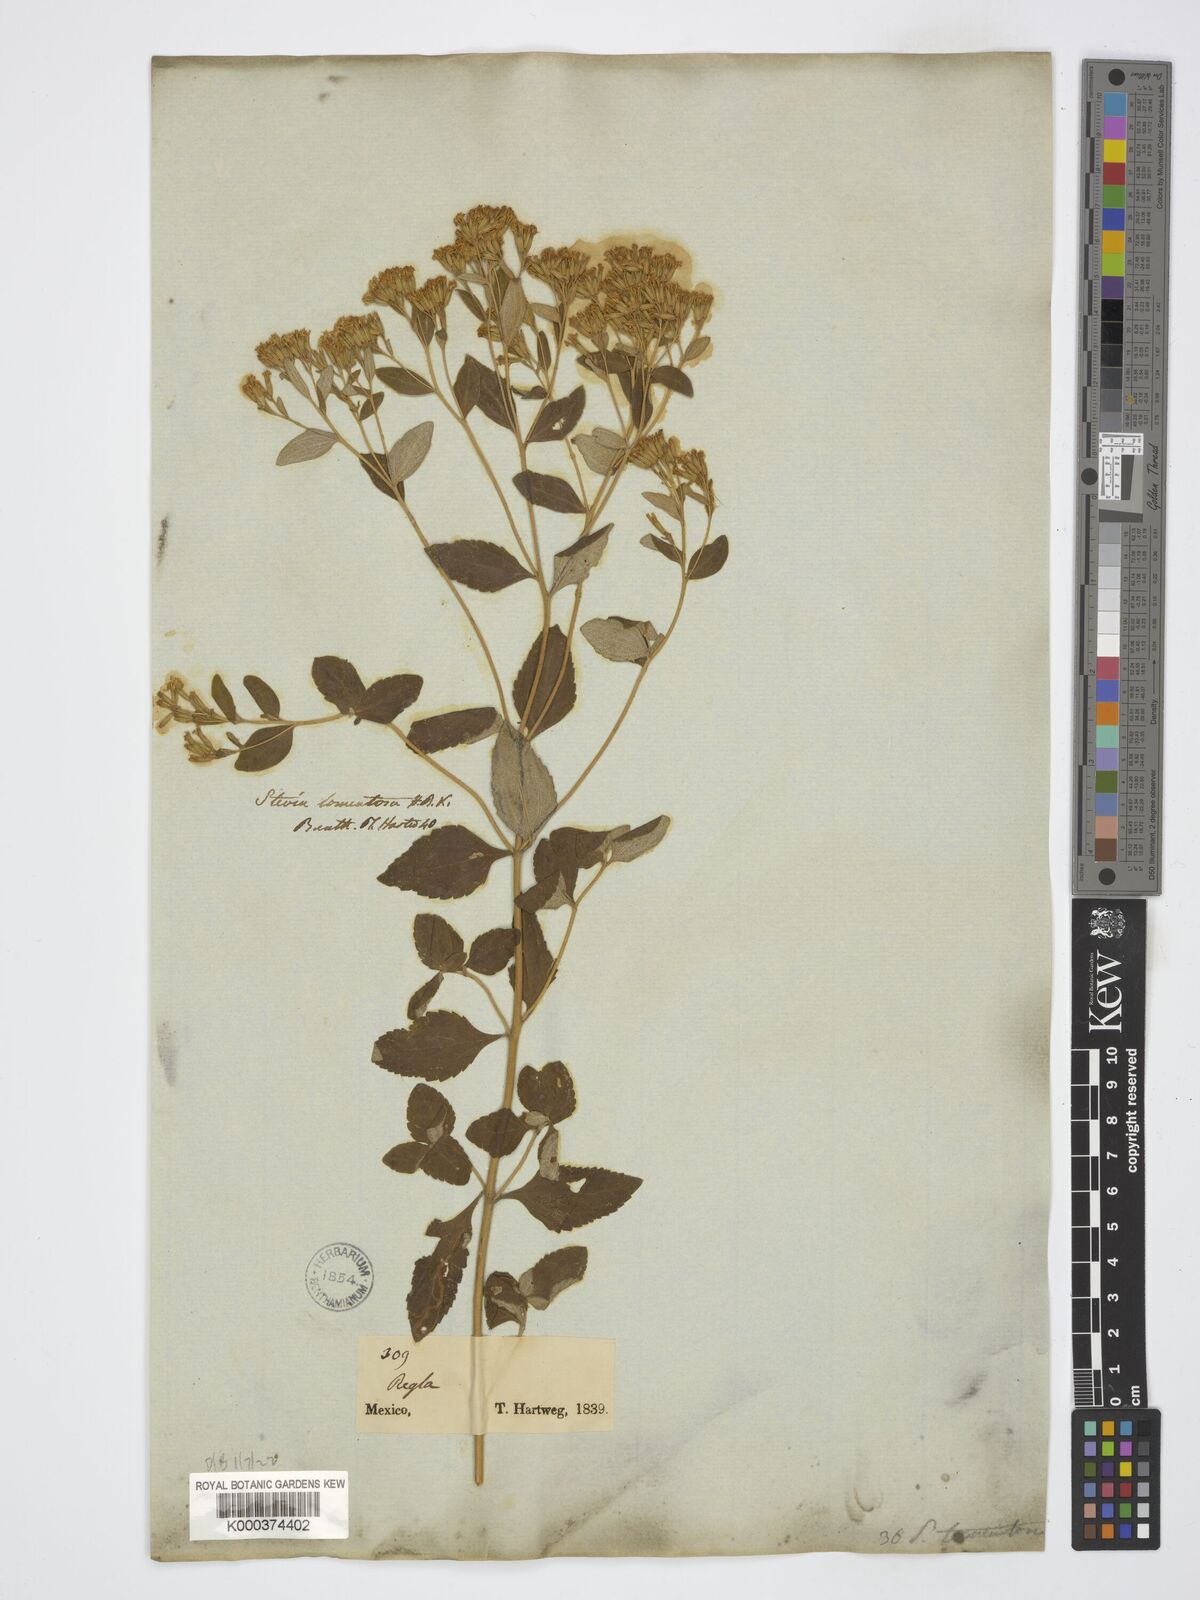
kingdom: Plantae
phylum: Tracheophyta
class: Magnoliopsida
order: Asterales
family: Asteraceae
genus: Cosmos
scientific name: Cosmos diversifolius
